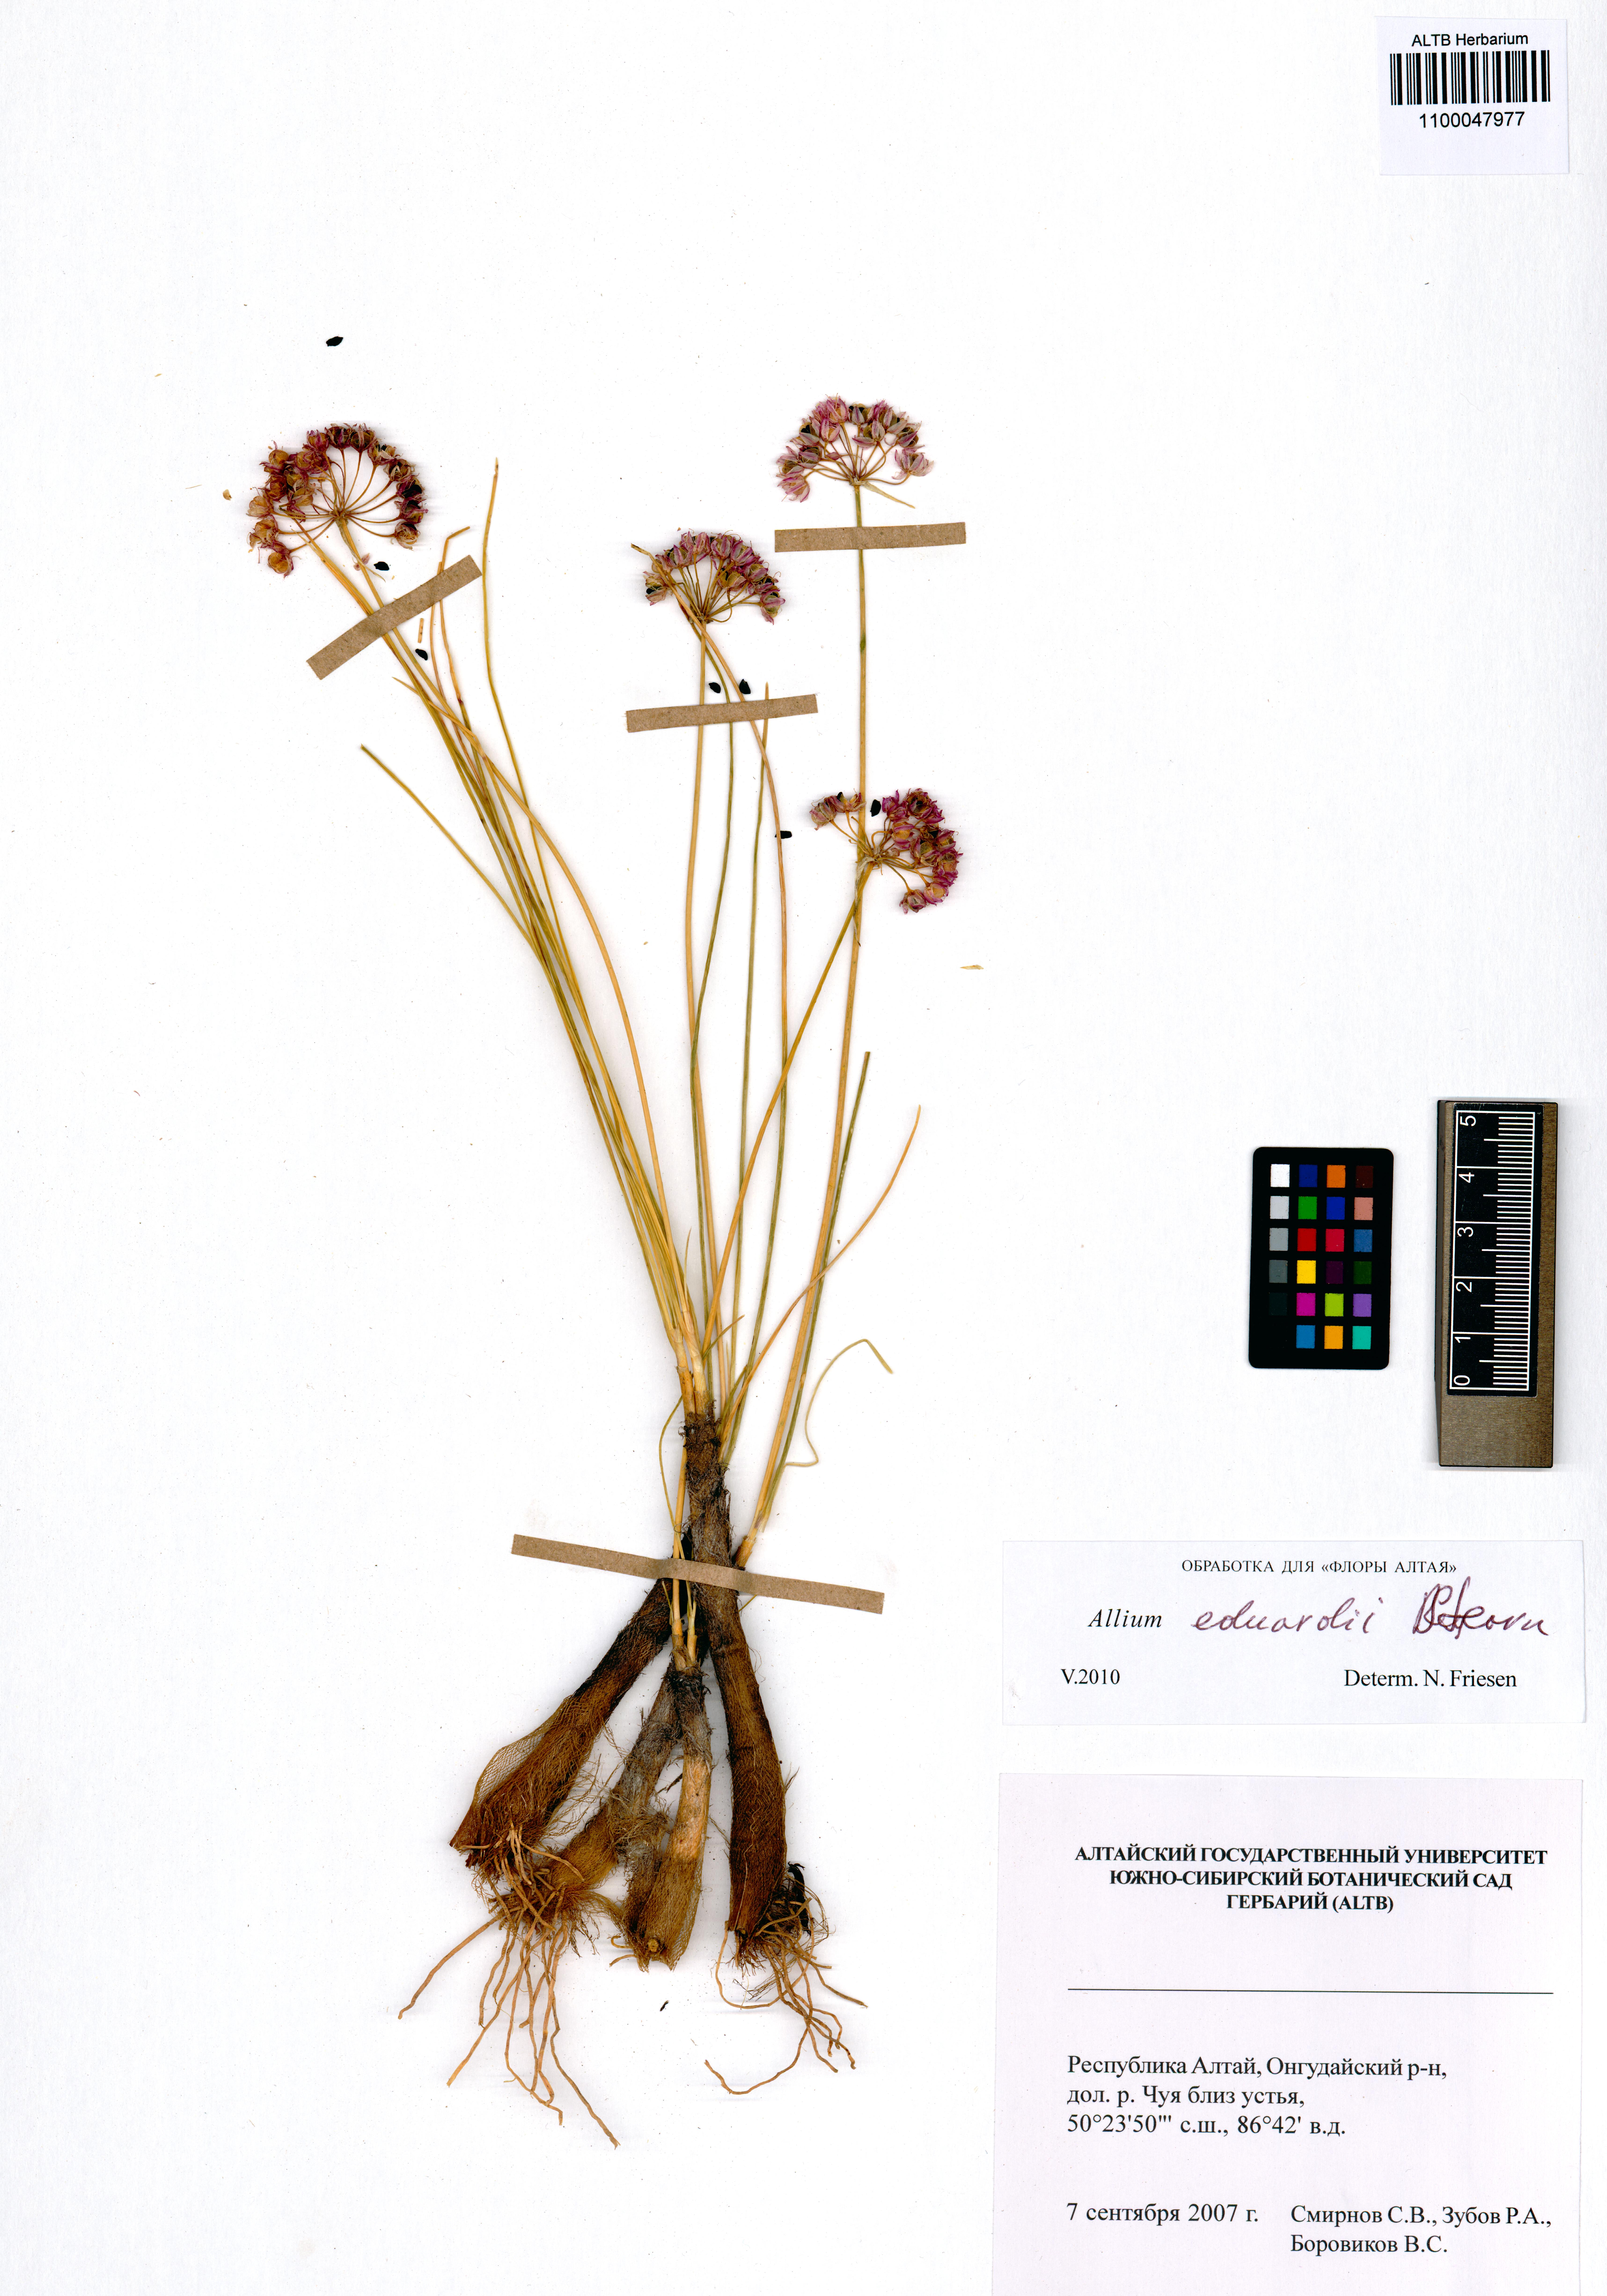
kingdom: Plantae
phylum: Tracheophyta
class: Liliopsida
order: Asparagales
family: Amaryllidaceae
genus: Allium
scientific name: Allium eduardi
